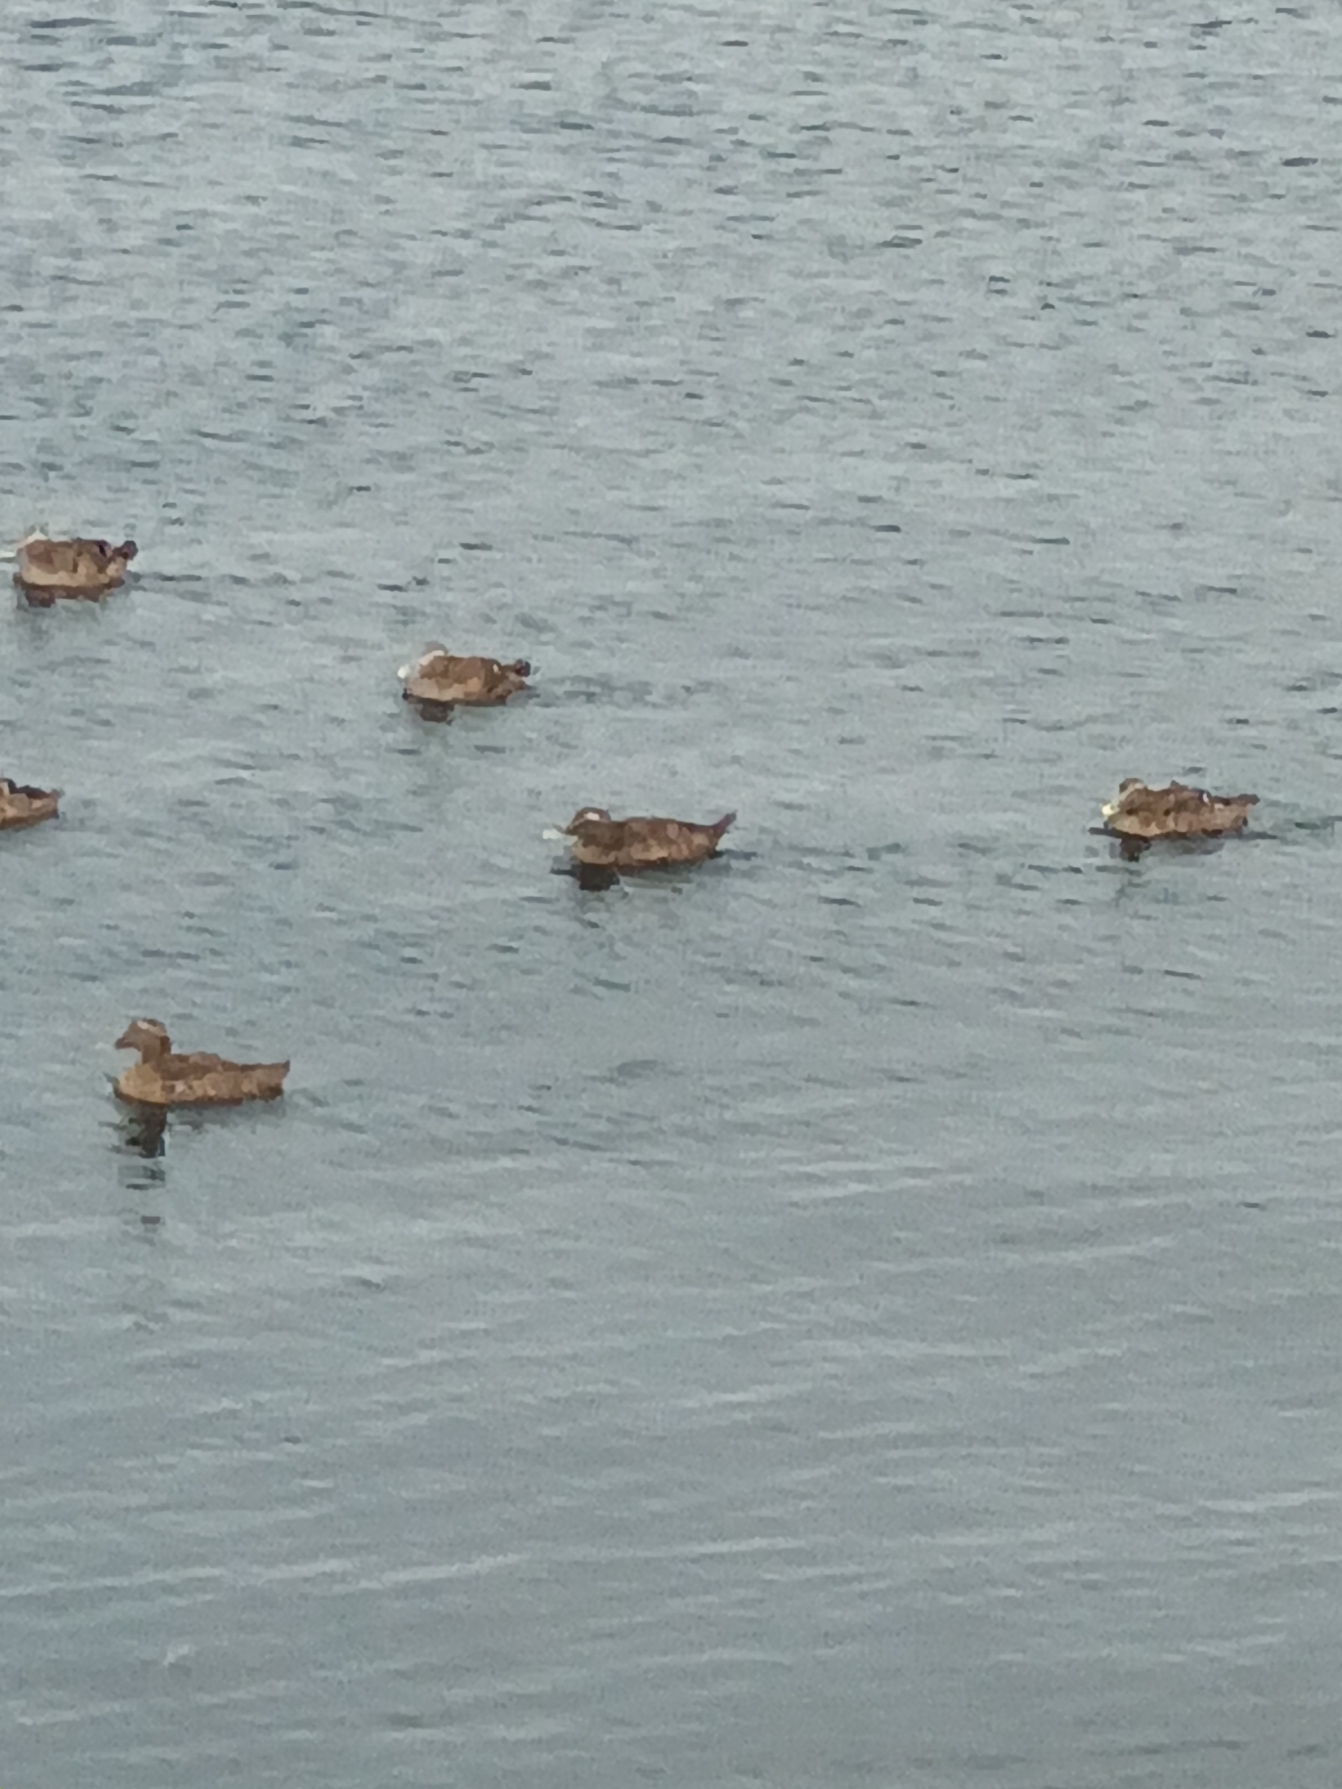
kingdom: Animalia
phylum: Chordata
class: Aves
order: Anseriformes
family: Anatidae
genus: Somateria
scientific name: Somateria mollissima
